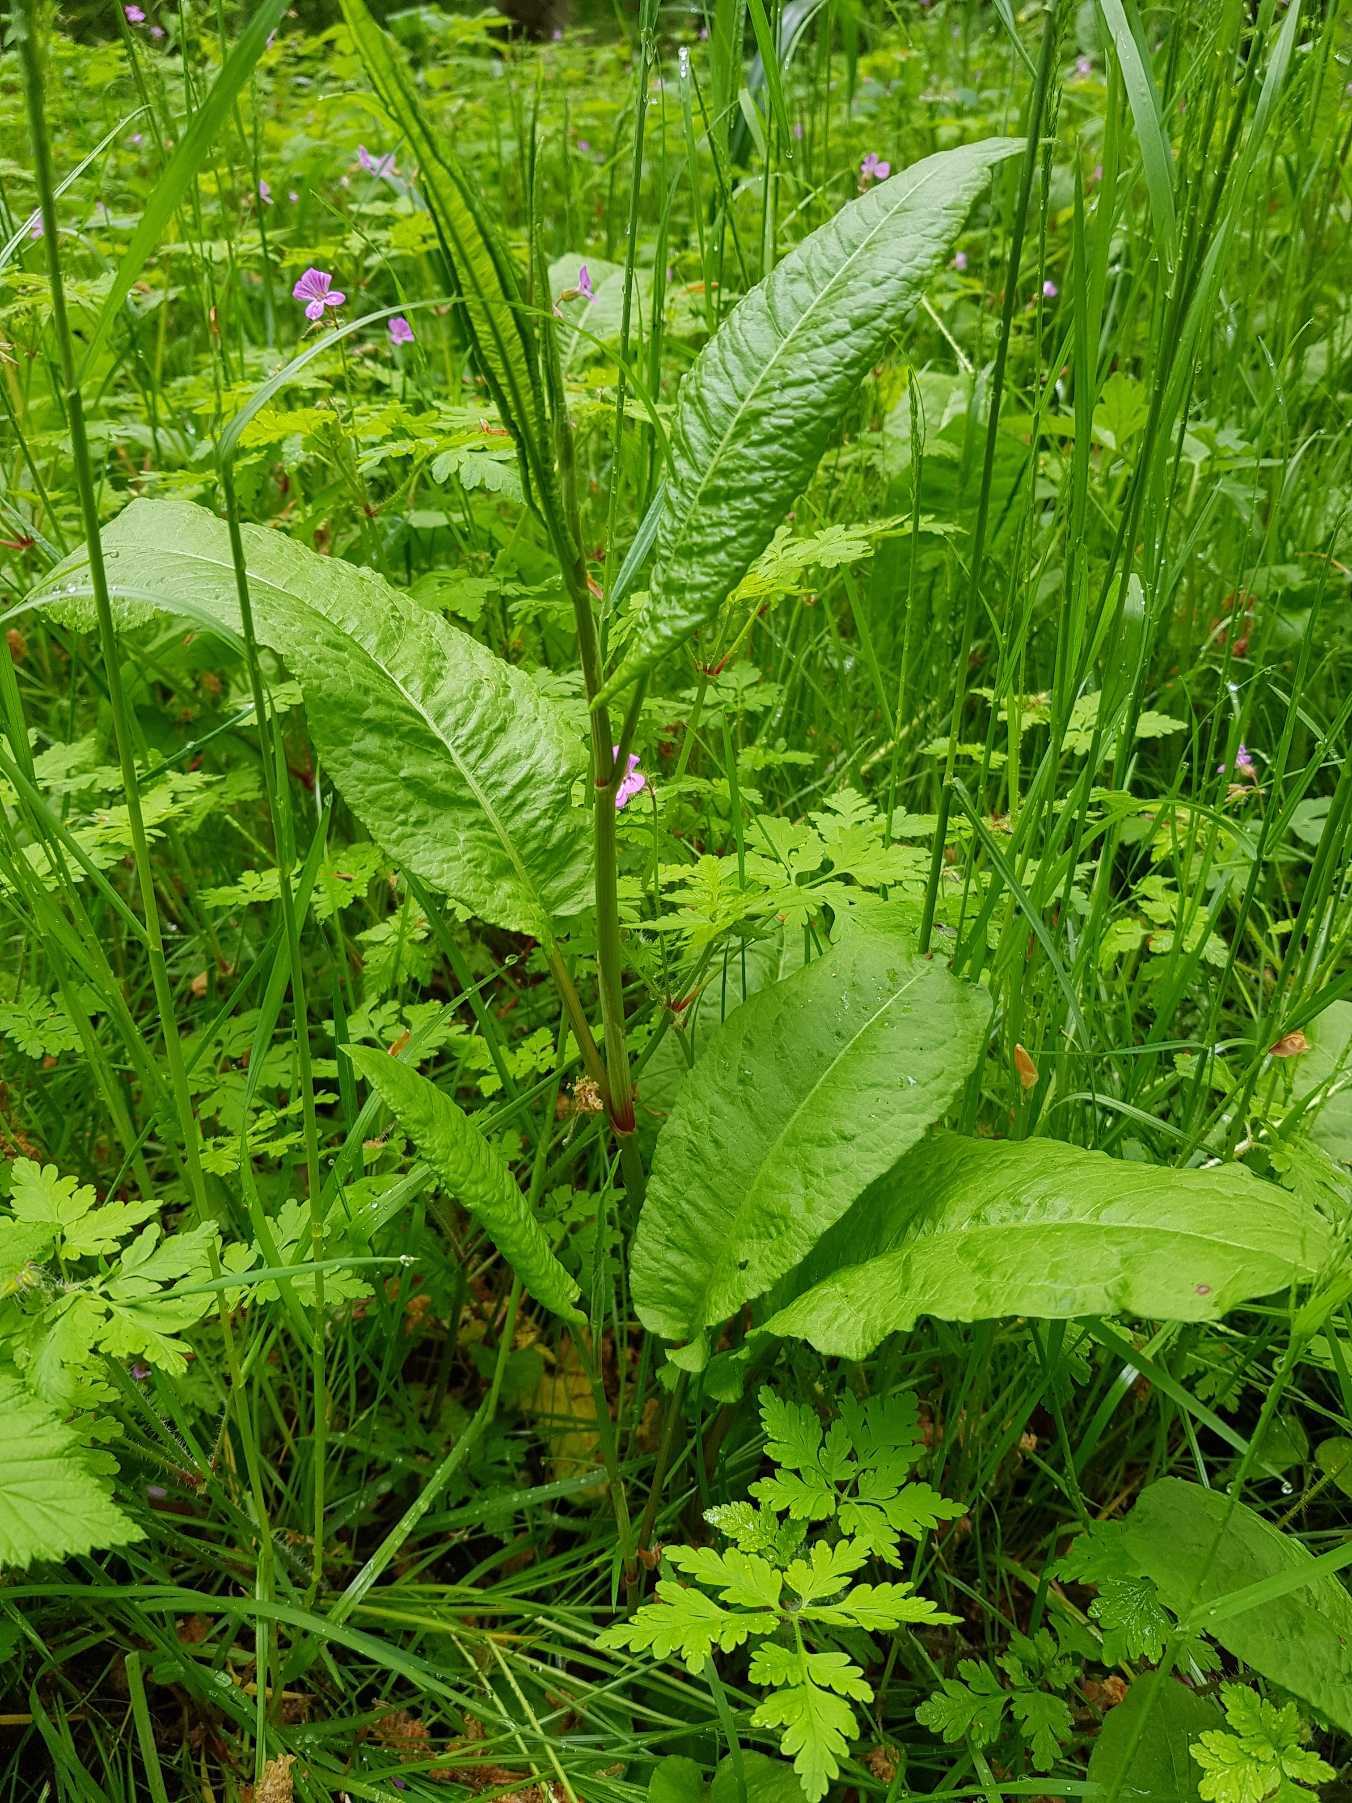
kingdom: Plantae
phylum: Tracheophyta
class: Magnoliopsida
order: Caryophyllales
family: Polygonaceae
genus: Rumex
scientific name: Rumex sanguineus
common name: Skov-skræppe
